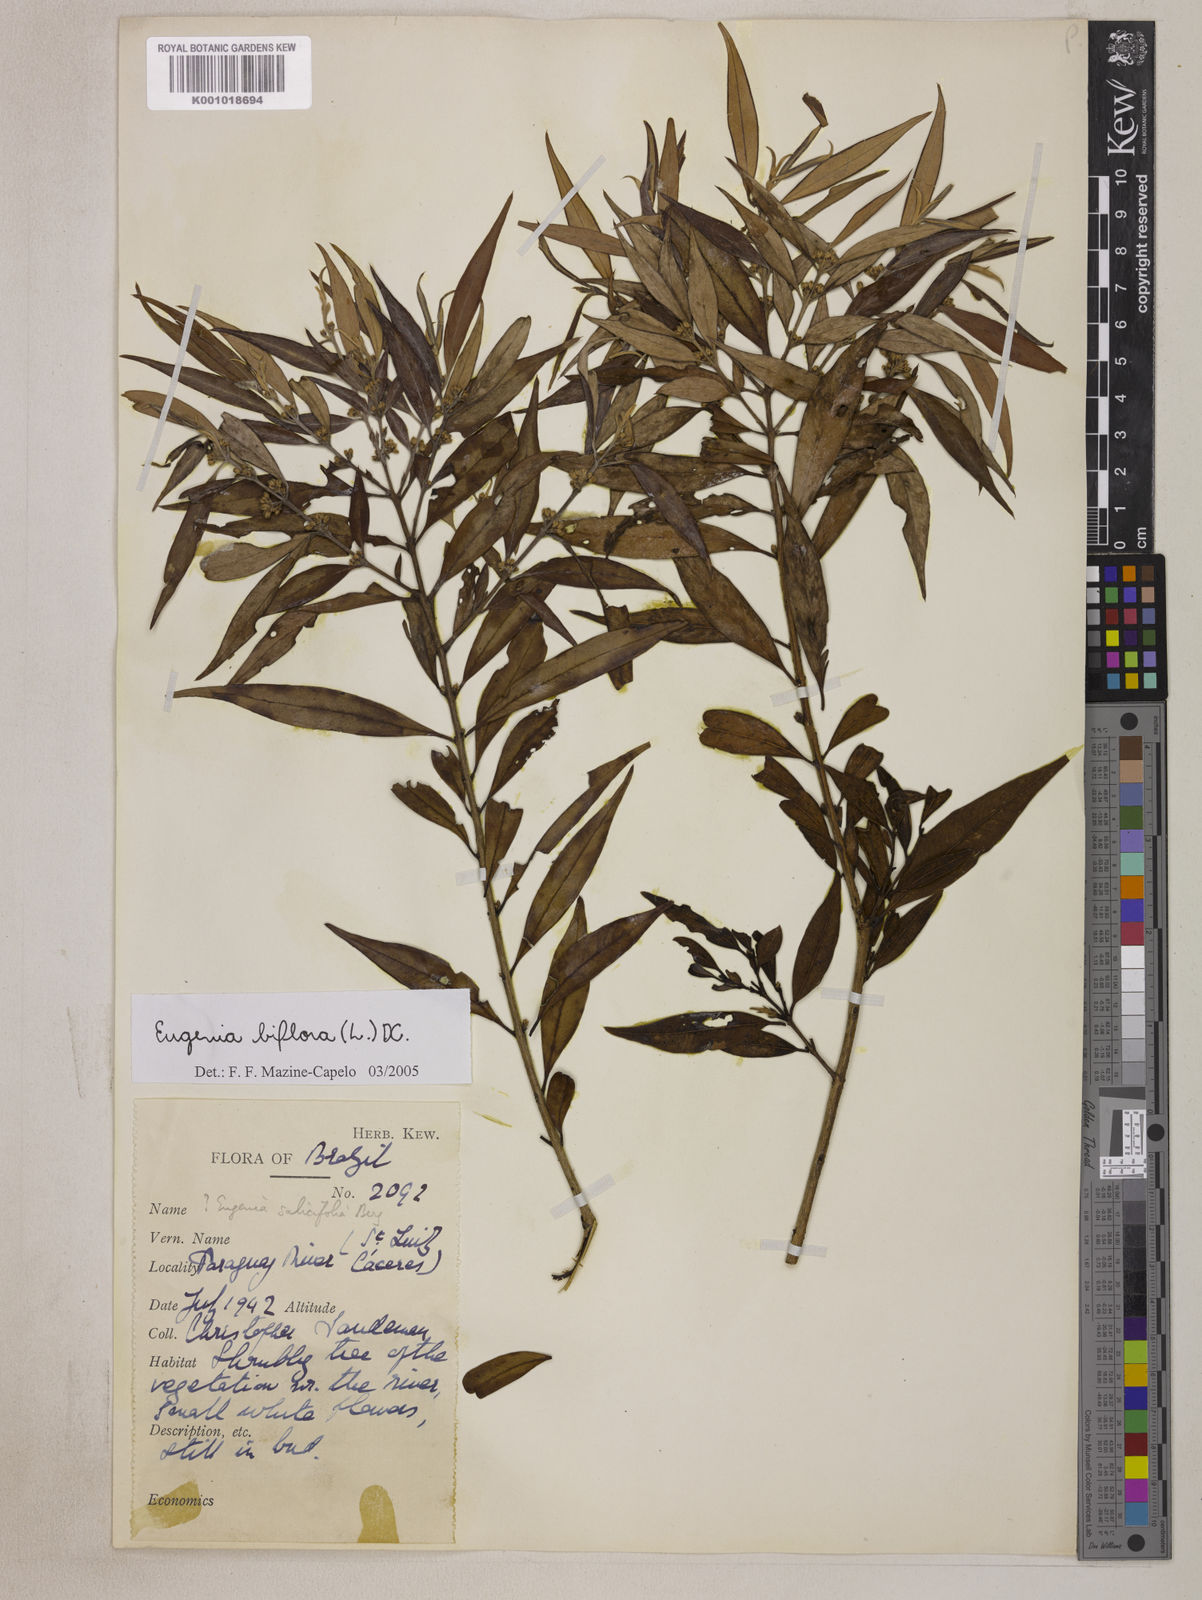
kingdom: Plantae
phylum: Tracheophyta
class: Magnoliopsida
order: Myrtales
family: Myrtaceae
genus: Eugenia
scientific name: Eugenia biflora
